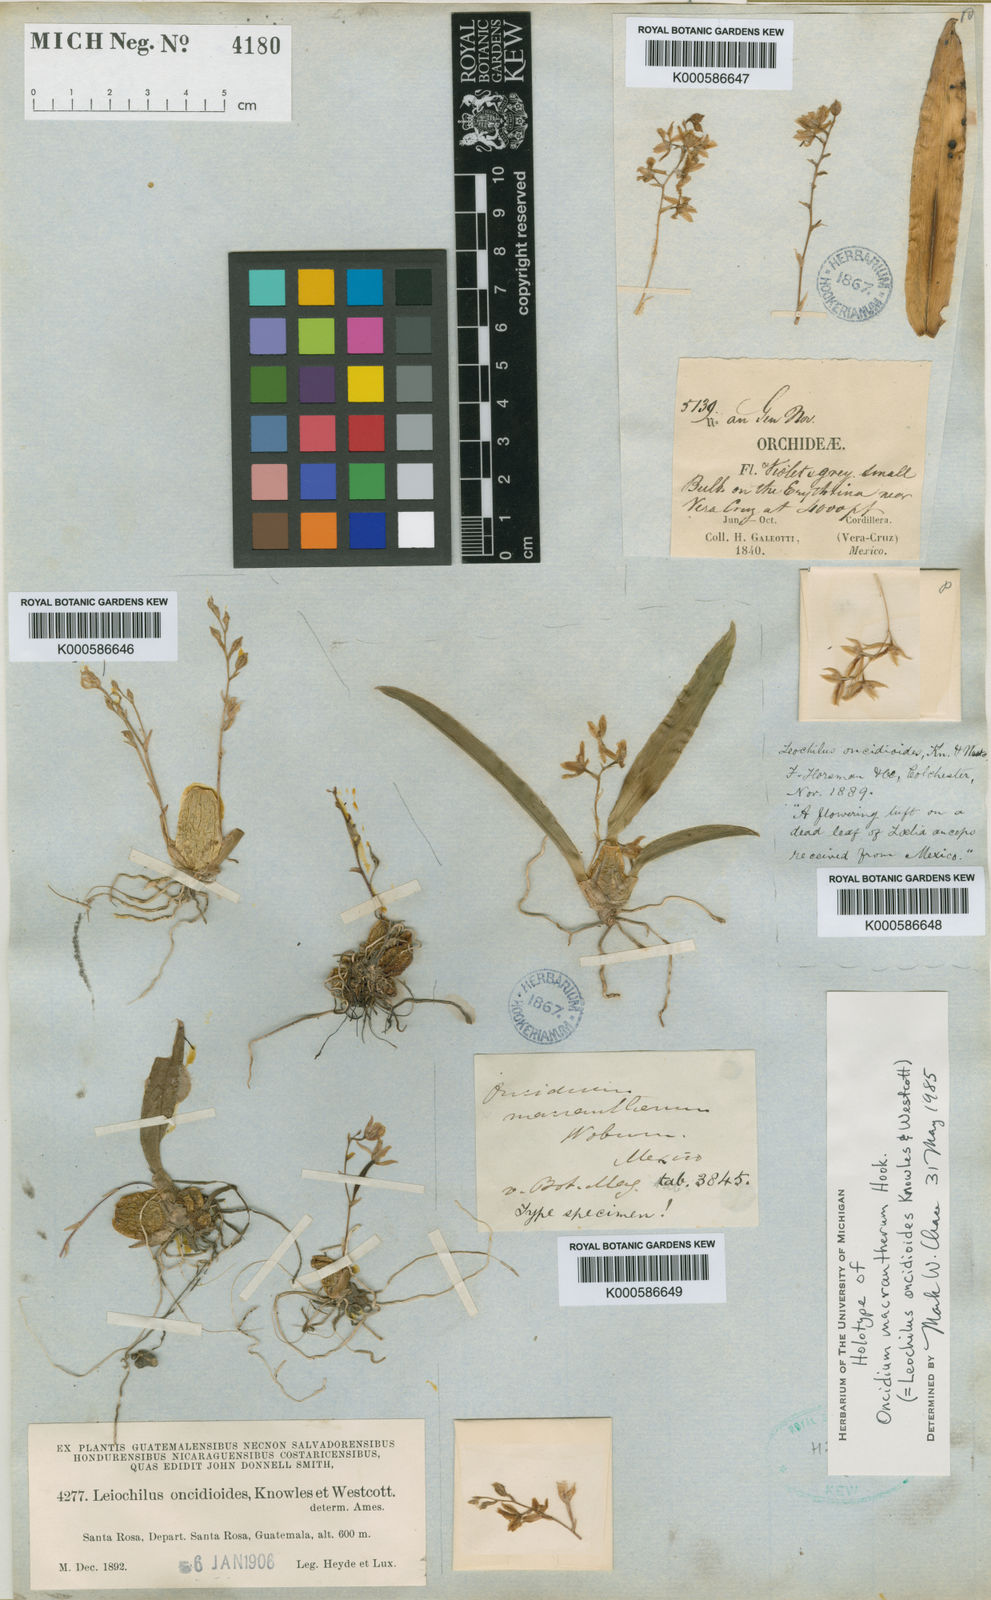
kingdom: Plantae
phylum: Tracheophyta
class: Liliopsida
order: Asparagales
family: Orchidaceae
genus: Leochilus
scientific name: Leochilus oncidioides
